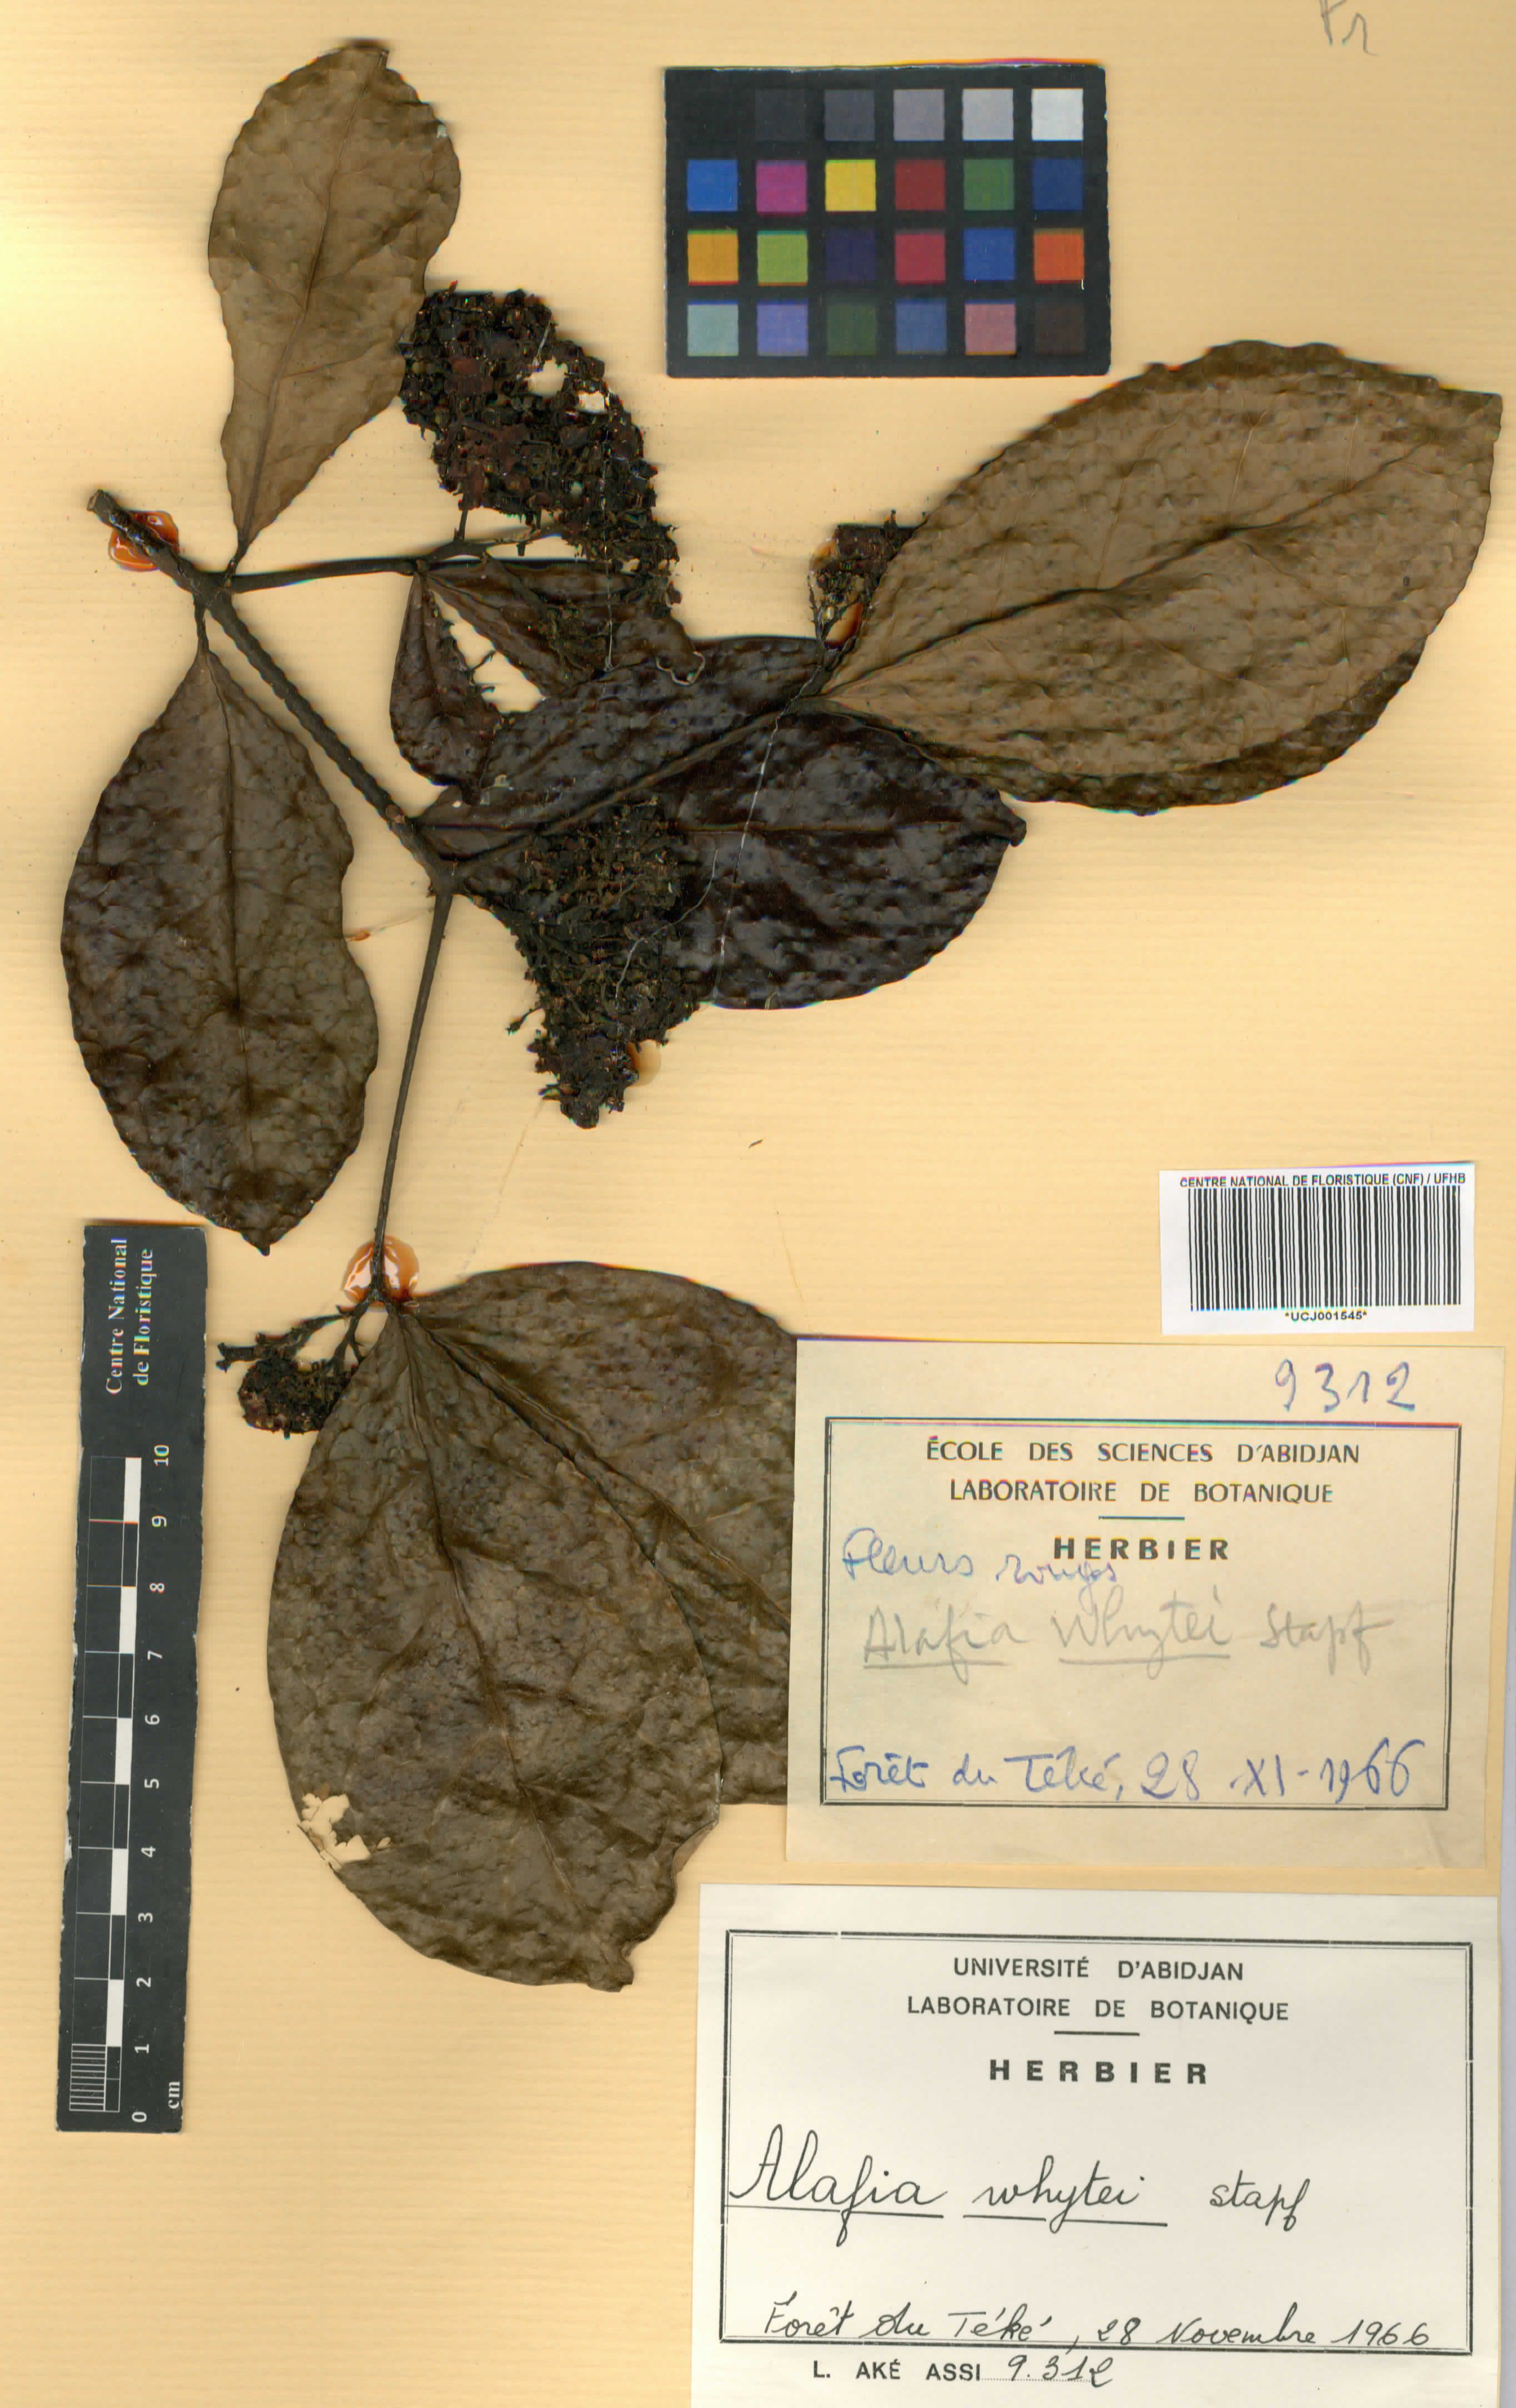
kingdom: Plantae
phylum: Tracheophyta
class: Magnoliopsida
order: Gentianales
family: Apocynaceae
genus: Alafia
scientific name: Alafia whytei
